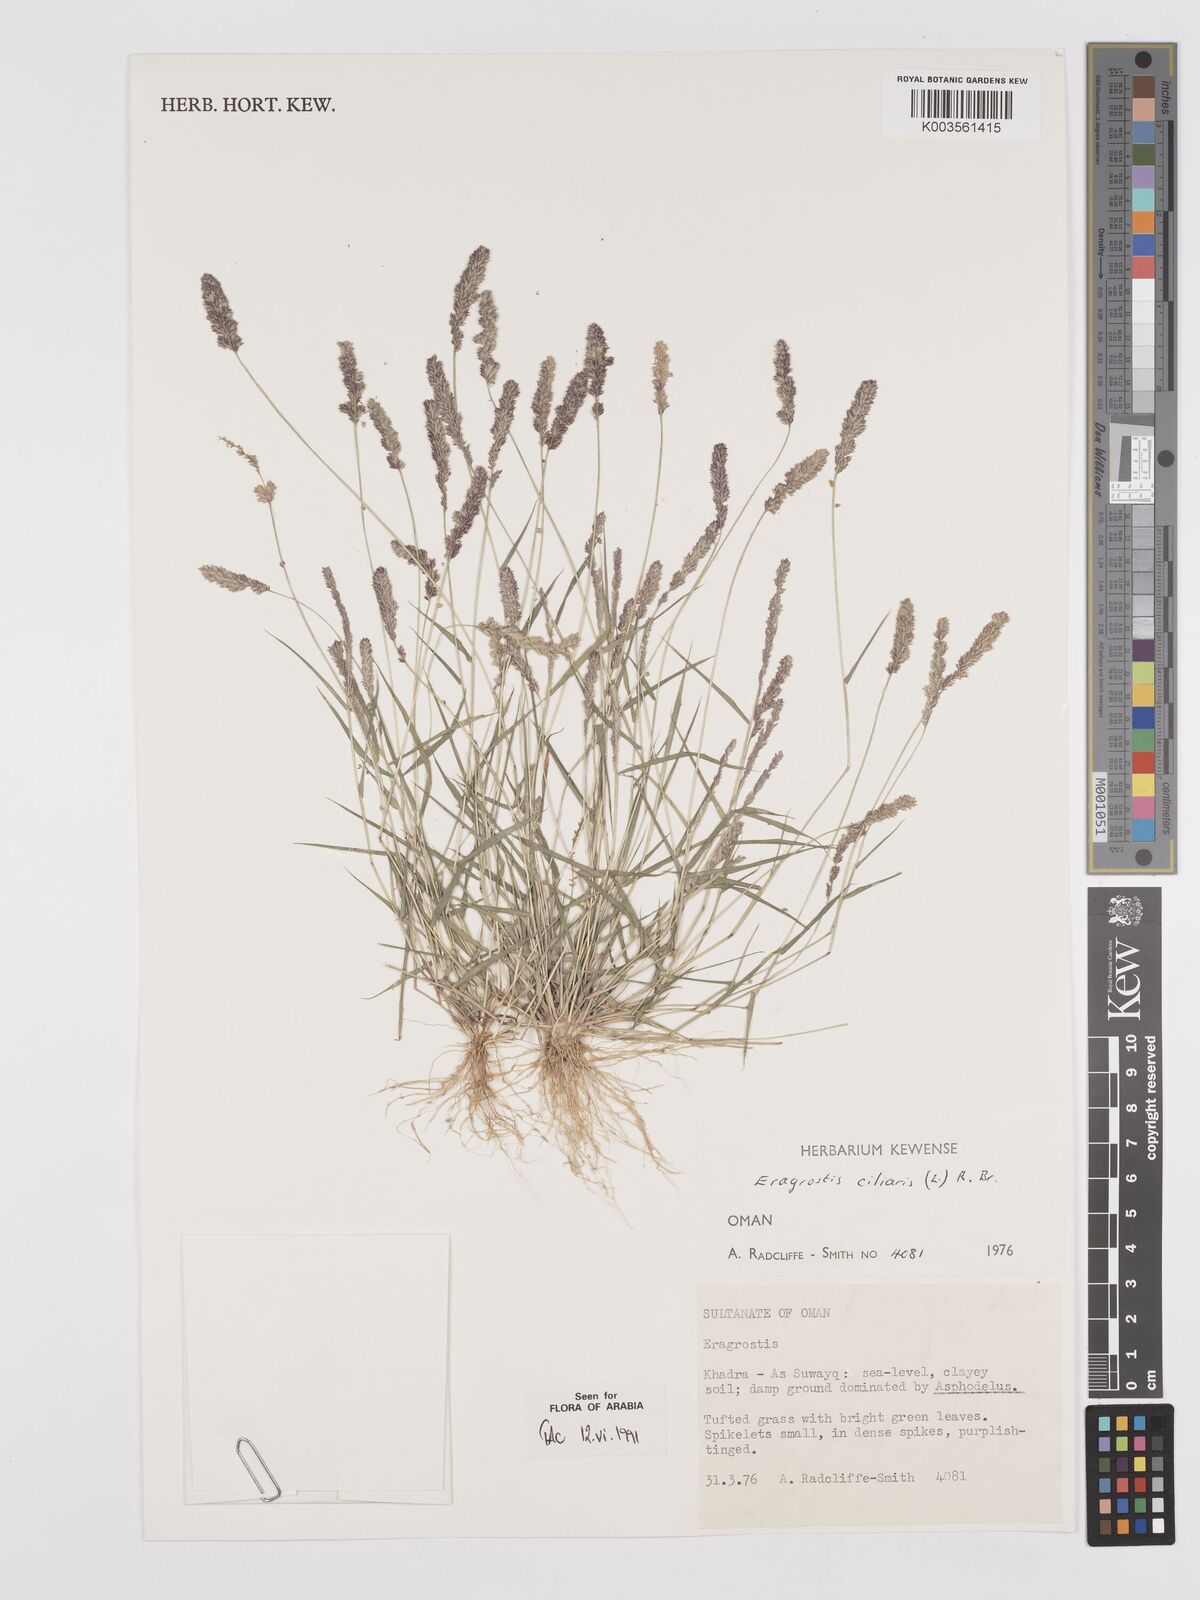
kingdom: Plantae
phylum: Tracheophyta
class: Liliopsida
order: Poales
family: Poaceae
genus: Eragrostis
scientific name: Eragrostis ciliaris
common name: Gophertail lovegrass
